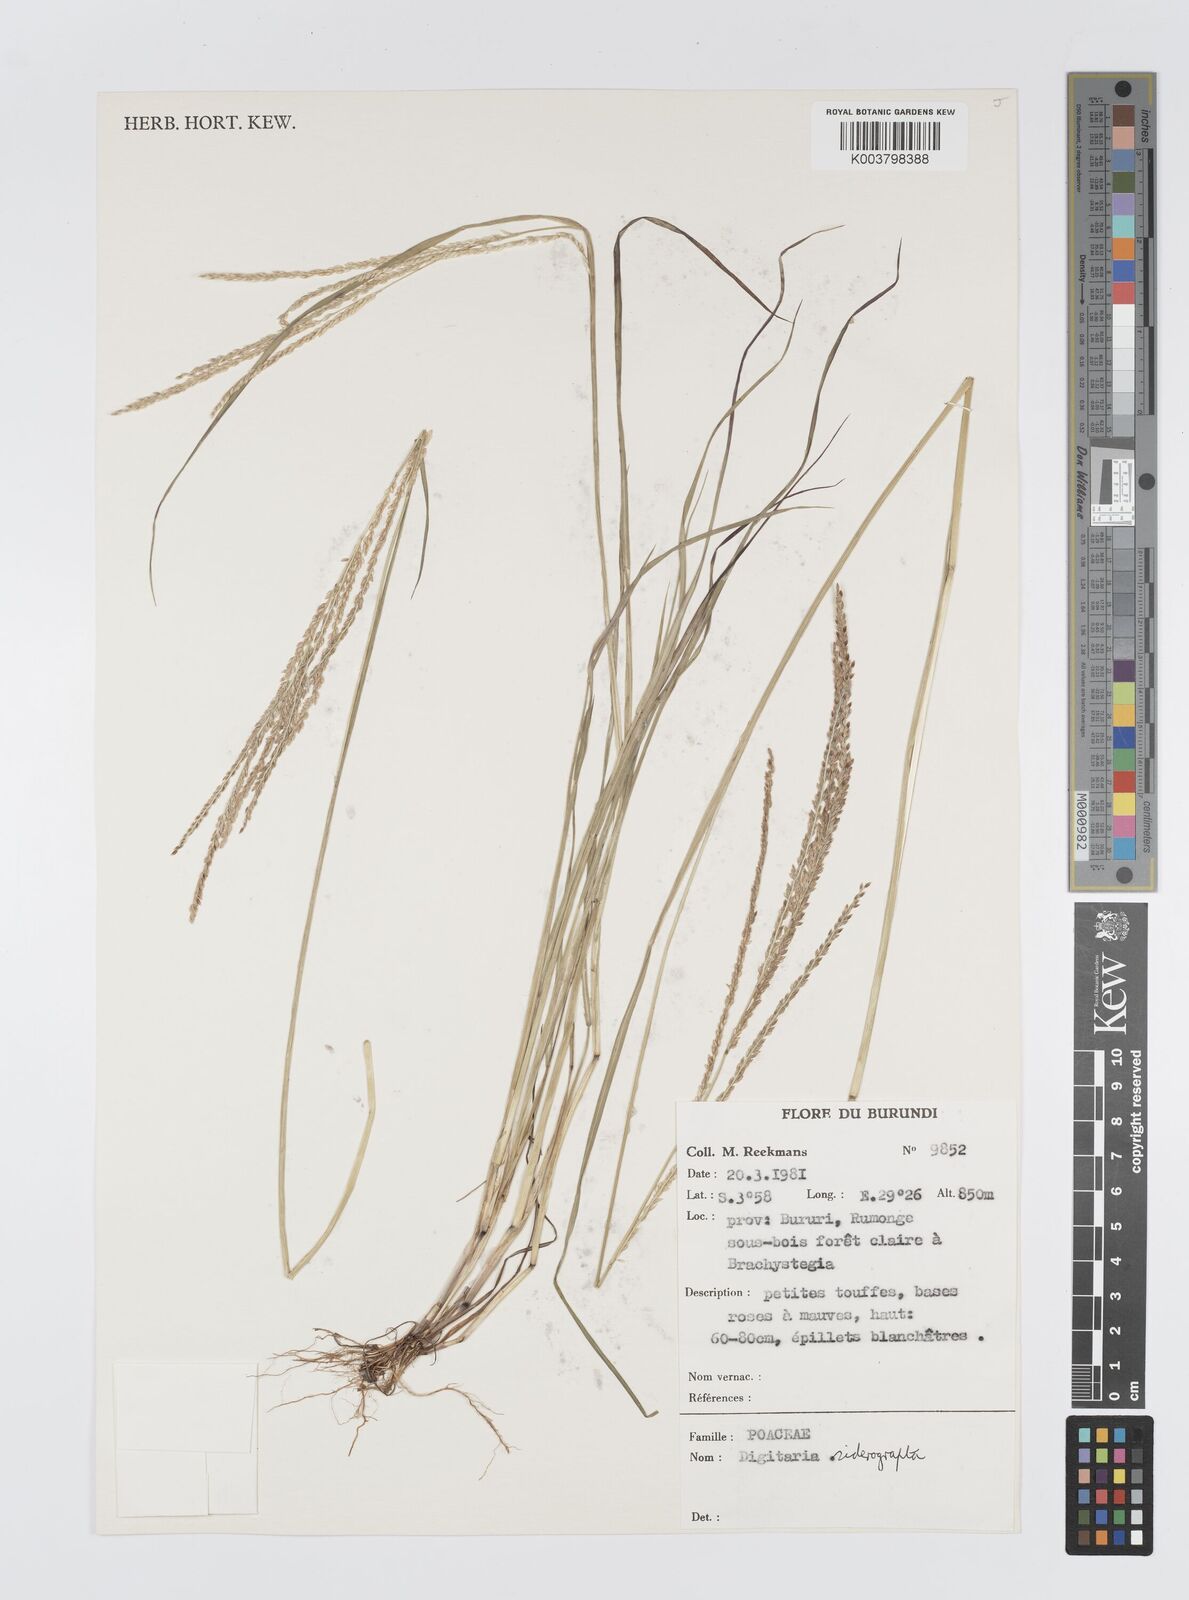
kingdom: Plantae
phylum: Tracheophyta
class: Liliopsida
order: Poales
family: Poaceae
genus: Digitaria
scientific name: Digitaria siderograpta
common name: Crab grass
